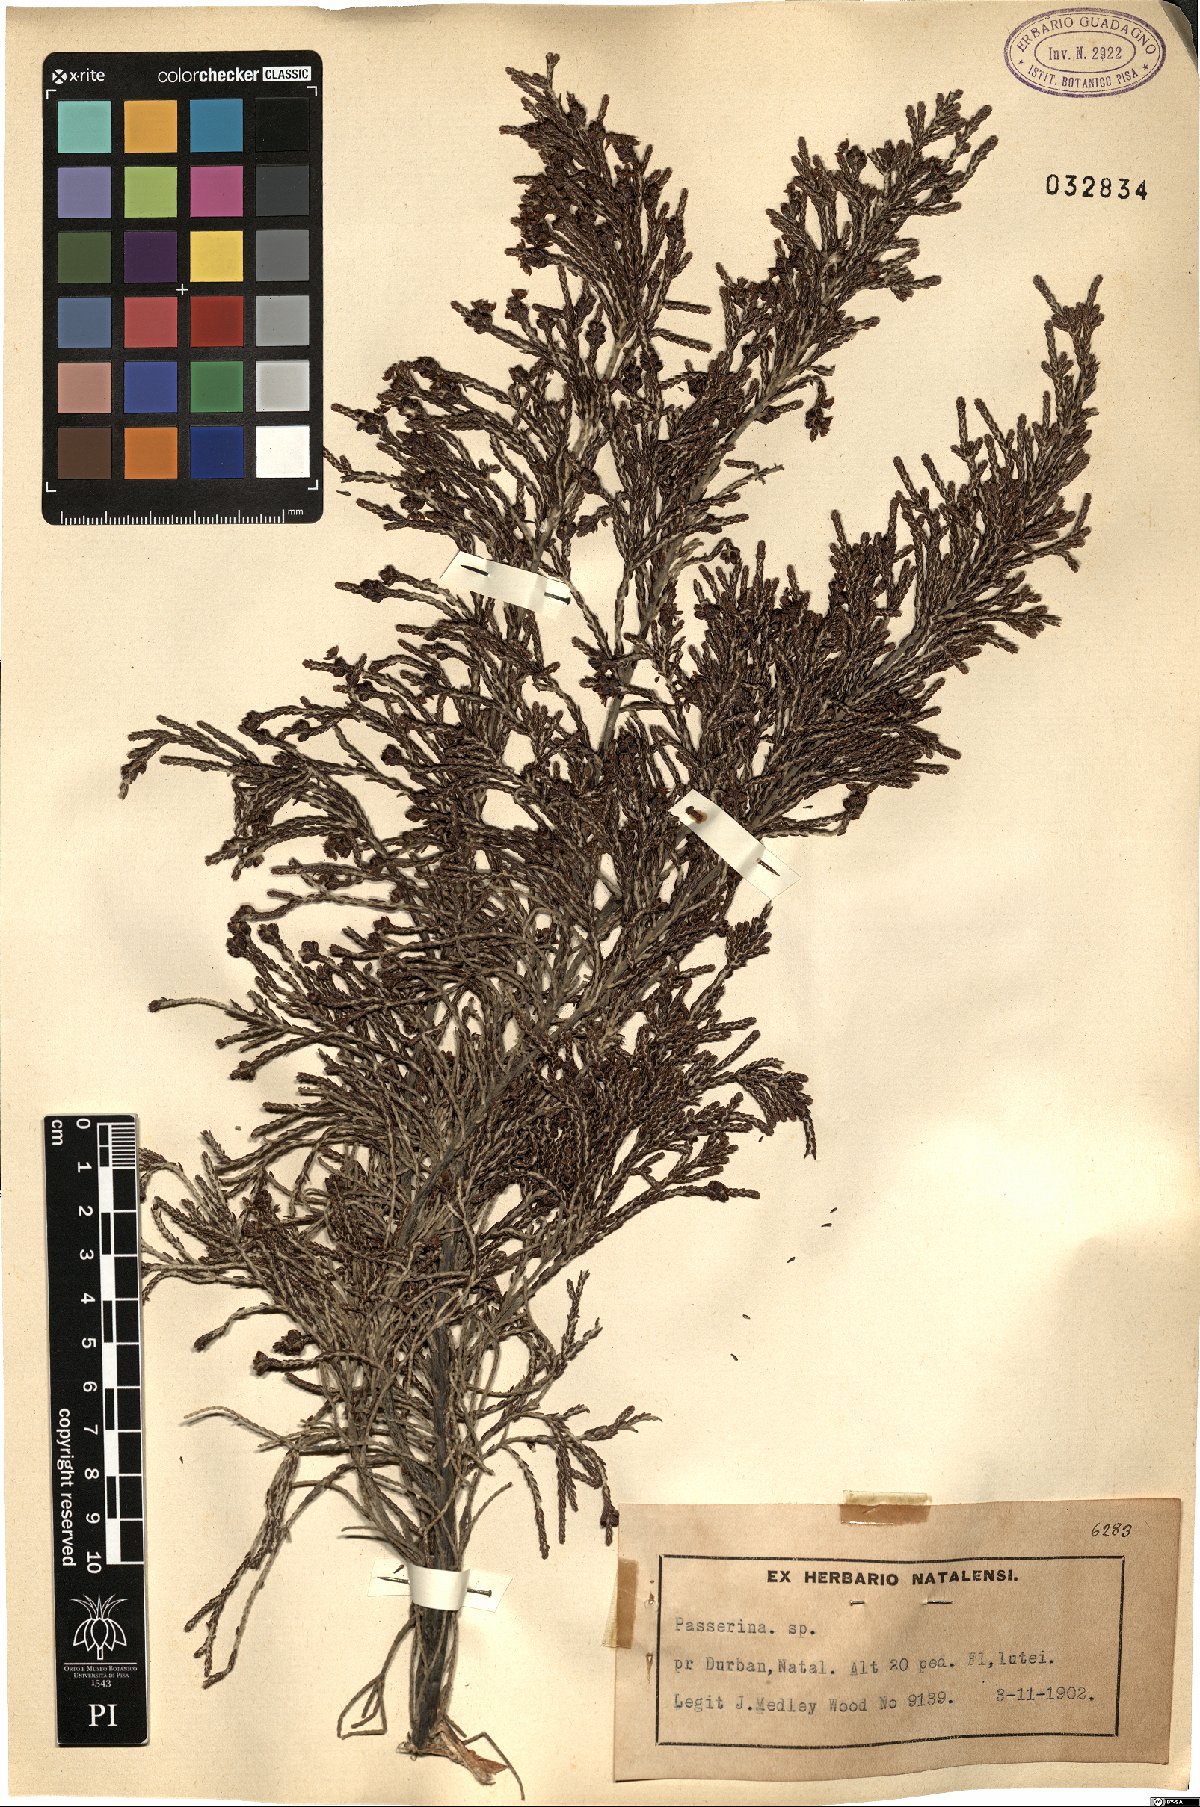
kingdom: Plantae
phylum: Tracheophyta
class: Magnoliopsida
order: Malvales
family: Thymelaeaceae
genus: Passerina
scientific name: Passerina
